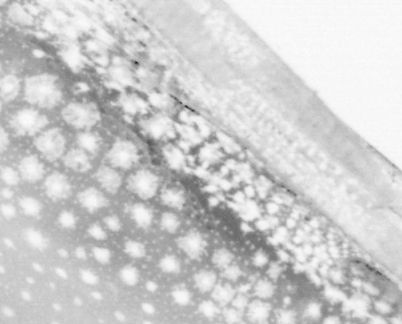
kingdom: Animalia
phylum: Chordata
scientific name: Chordata
